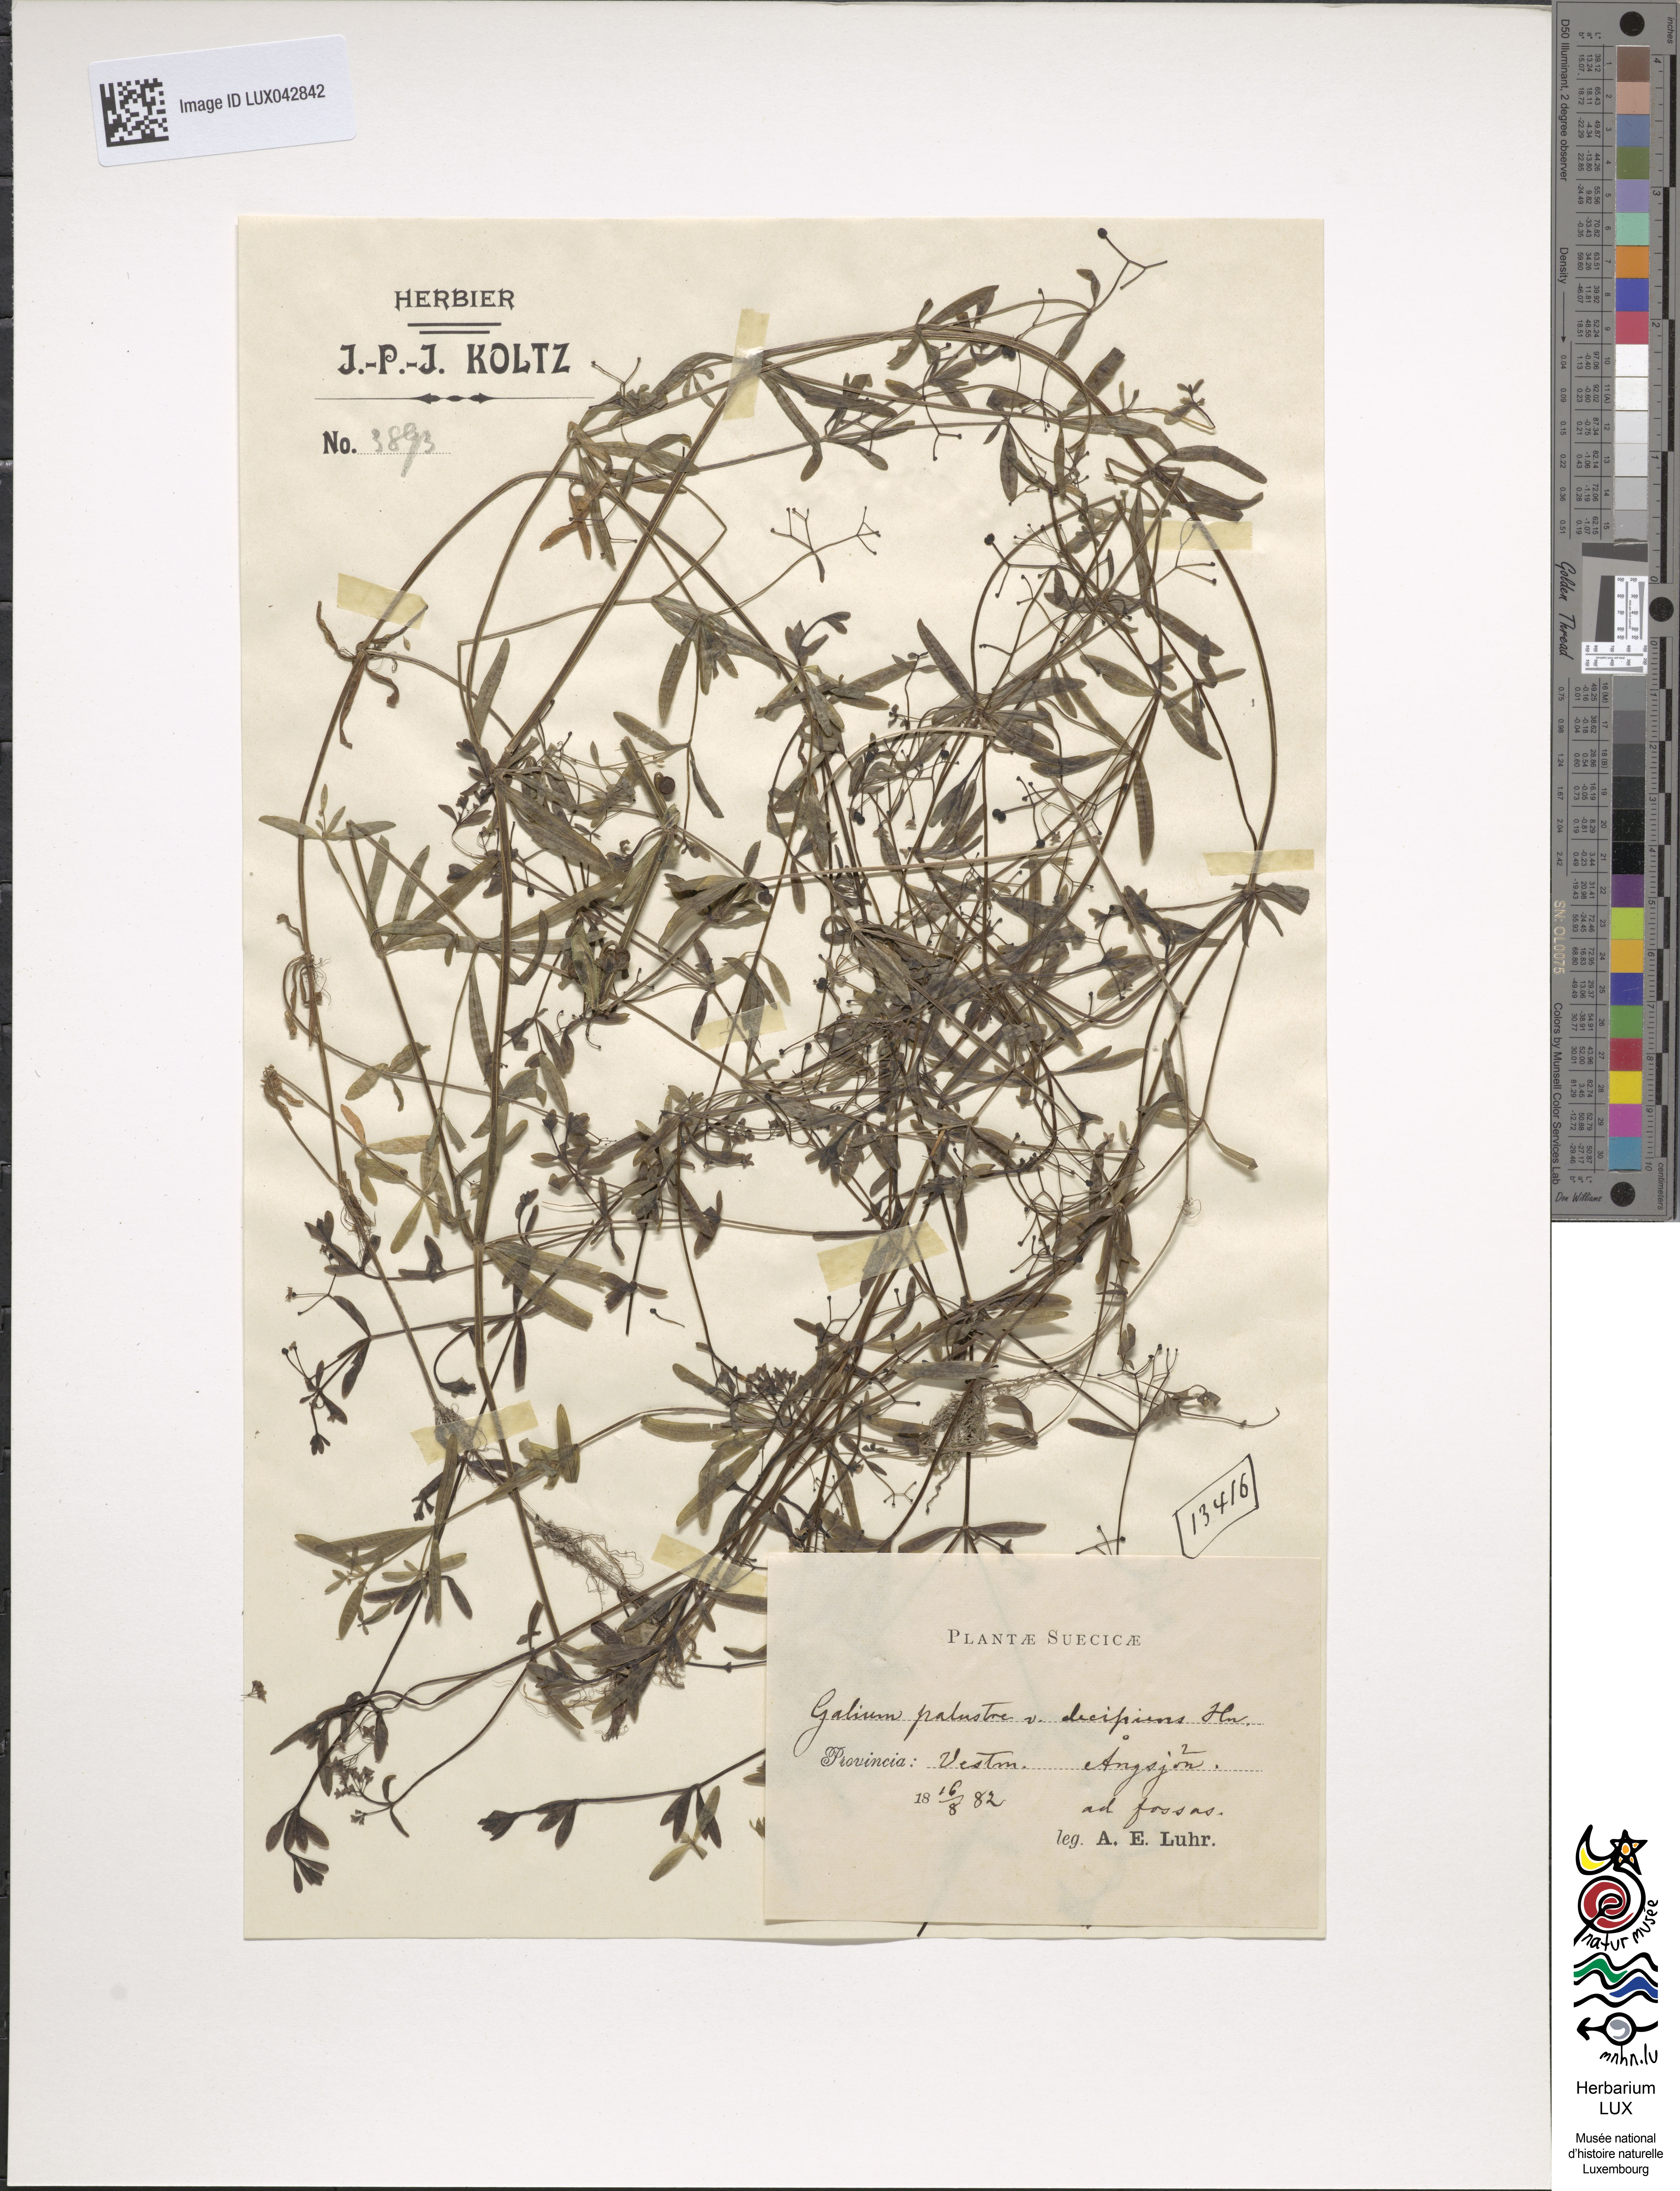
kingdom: Plantae
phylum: Tracheophyta
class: Magnoliopsida
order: Gentianales
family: Rubiaceae
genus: Galium
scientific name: Galium palustre
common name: Common marsh-bedstraw
